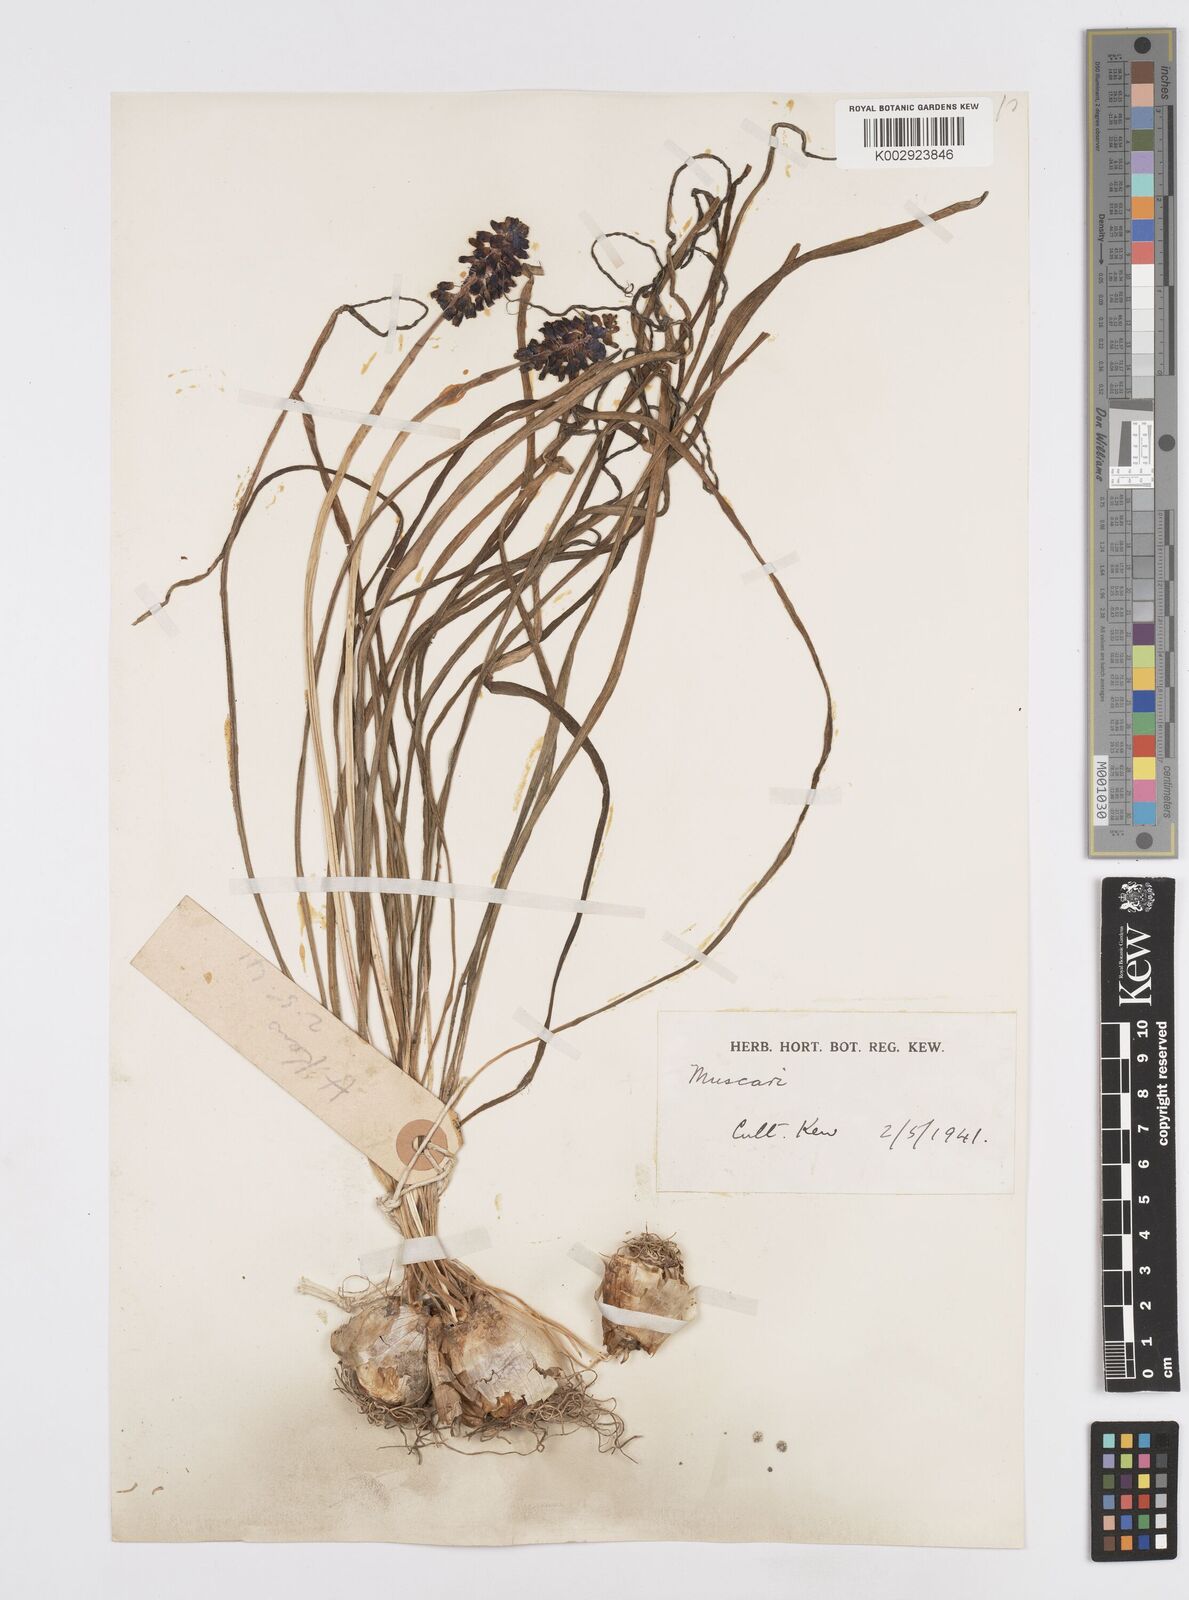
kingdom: Plantae
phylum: Tracheophyta
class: Liliopsida
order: Asparagales
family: Asparagaceae
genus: Muscari
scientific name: Muscari neglectum
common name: Grape-hyacinth
